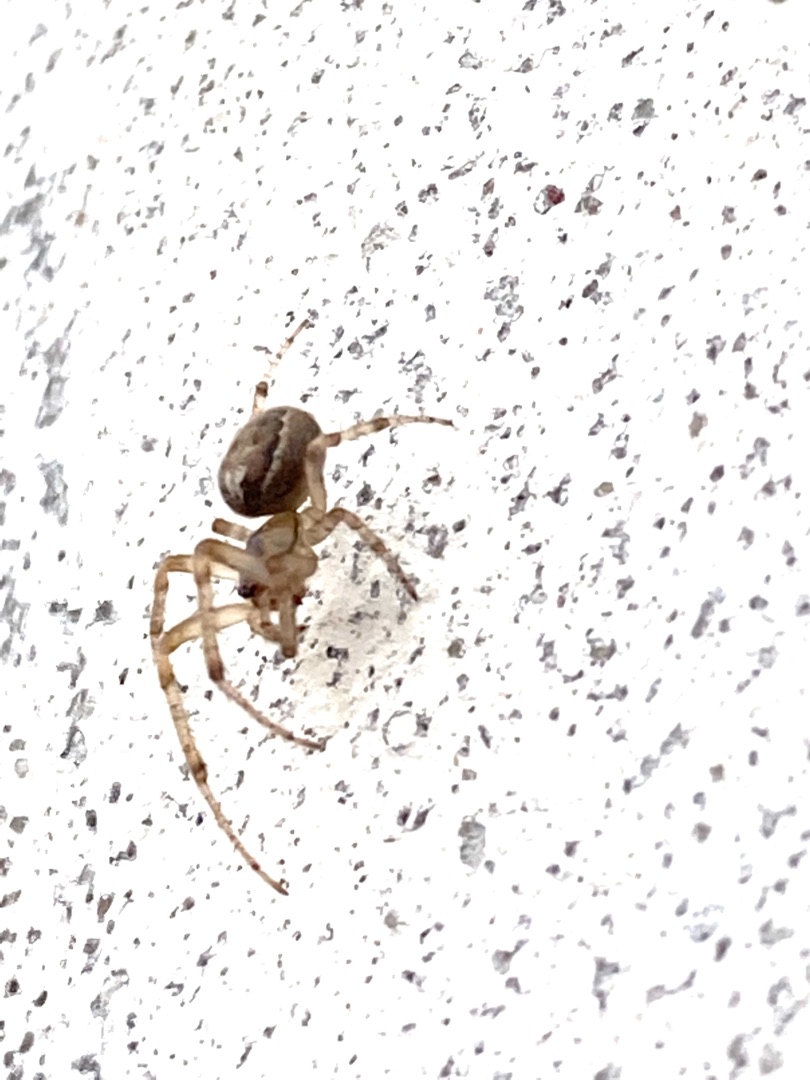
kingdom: Animalia
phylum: Arthropoda
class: Arachnida
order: Araneae
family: Araneidae
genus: Zygiella
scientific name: Zygiella x-notata
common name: Grå sektoredderkop
